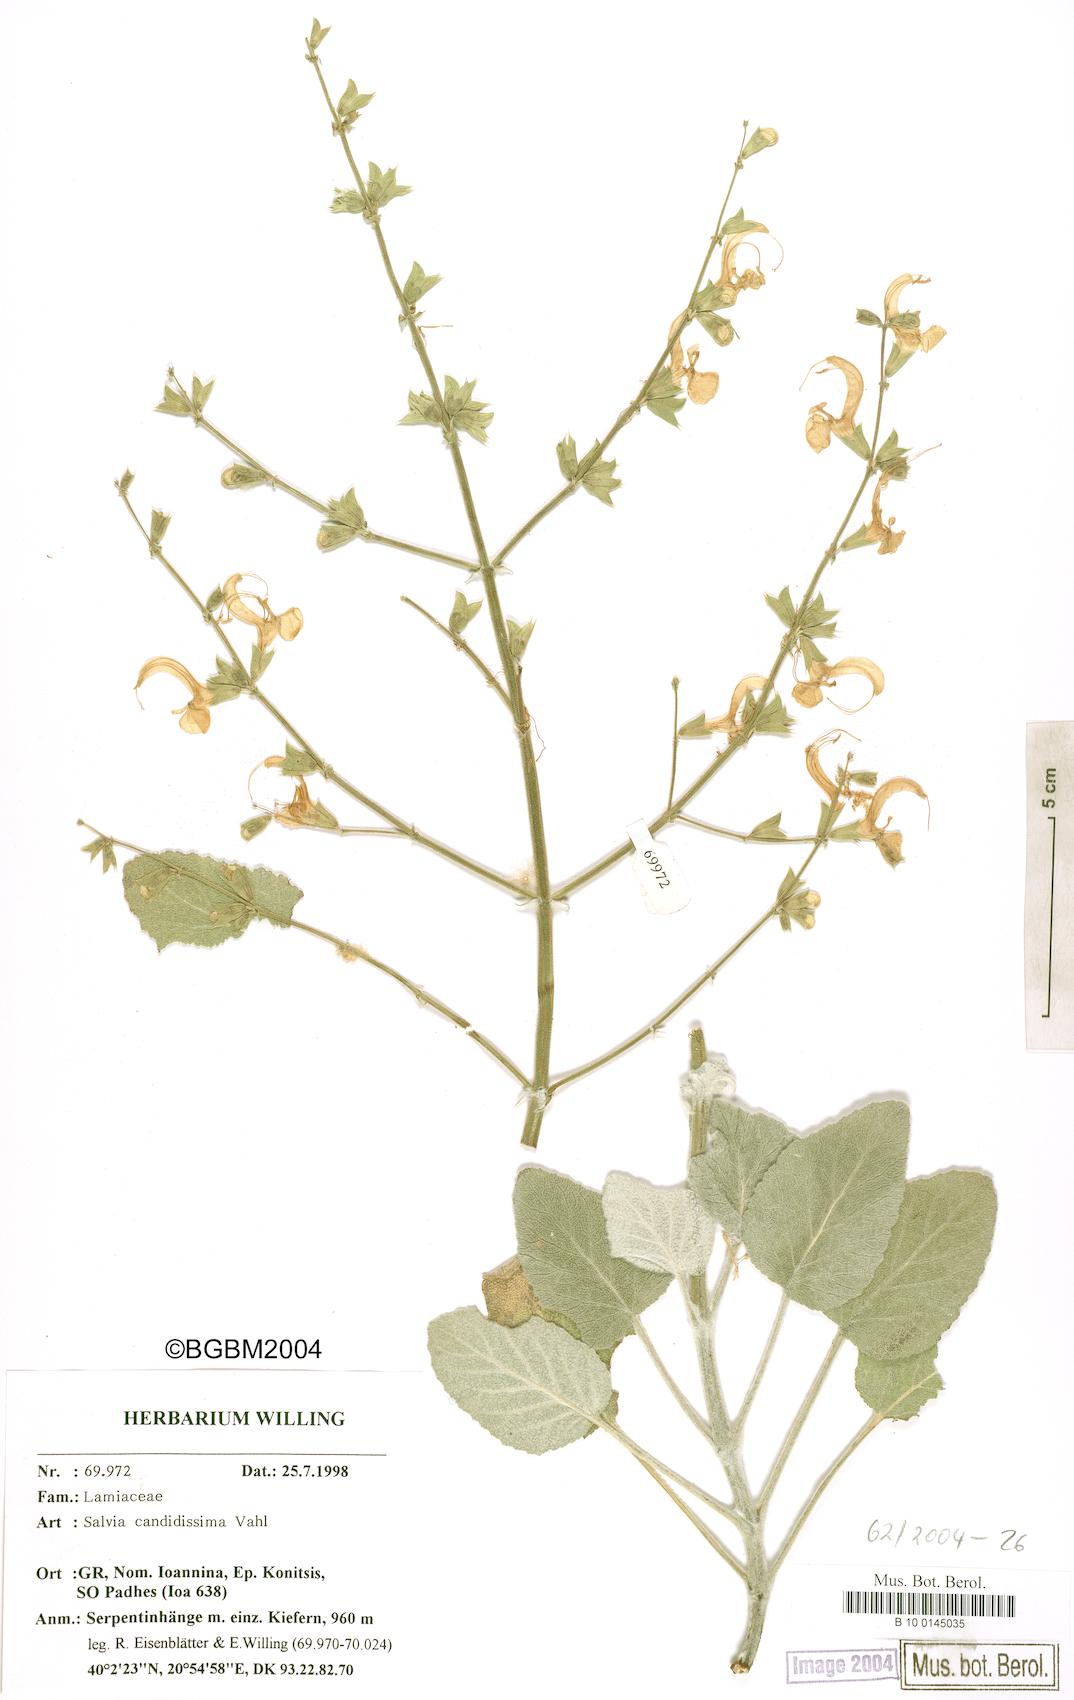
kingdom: Plantae
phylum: Tracheophyta
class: Magnoliopsida
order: Lamiales
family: Lamiaceae
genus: Salvia
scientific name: Salvia candidissima
